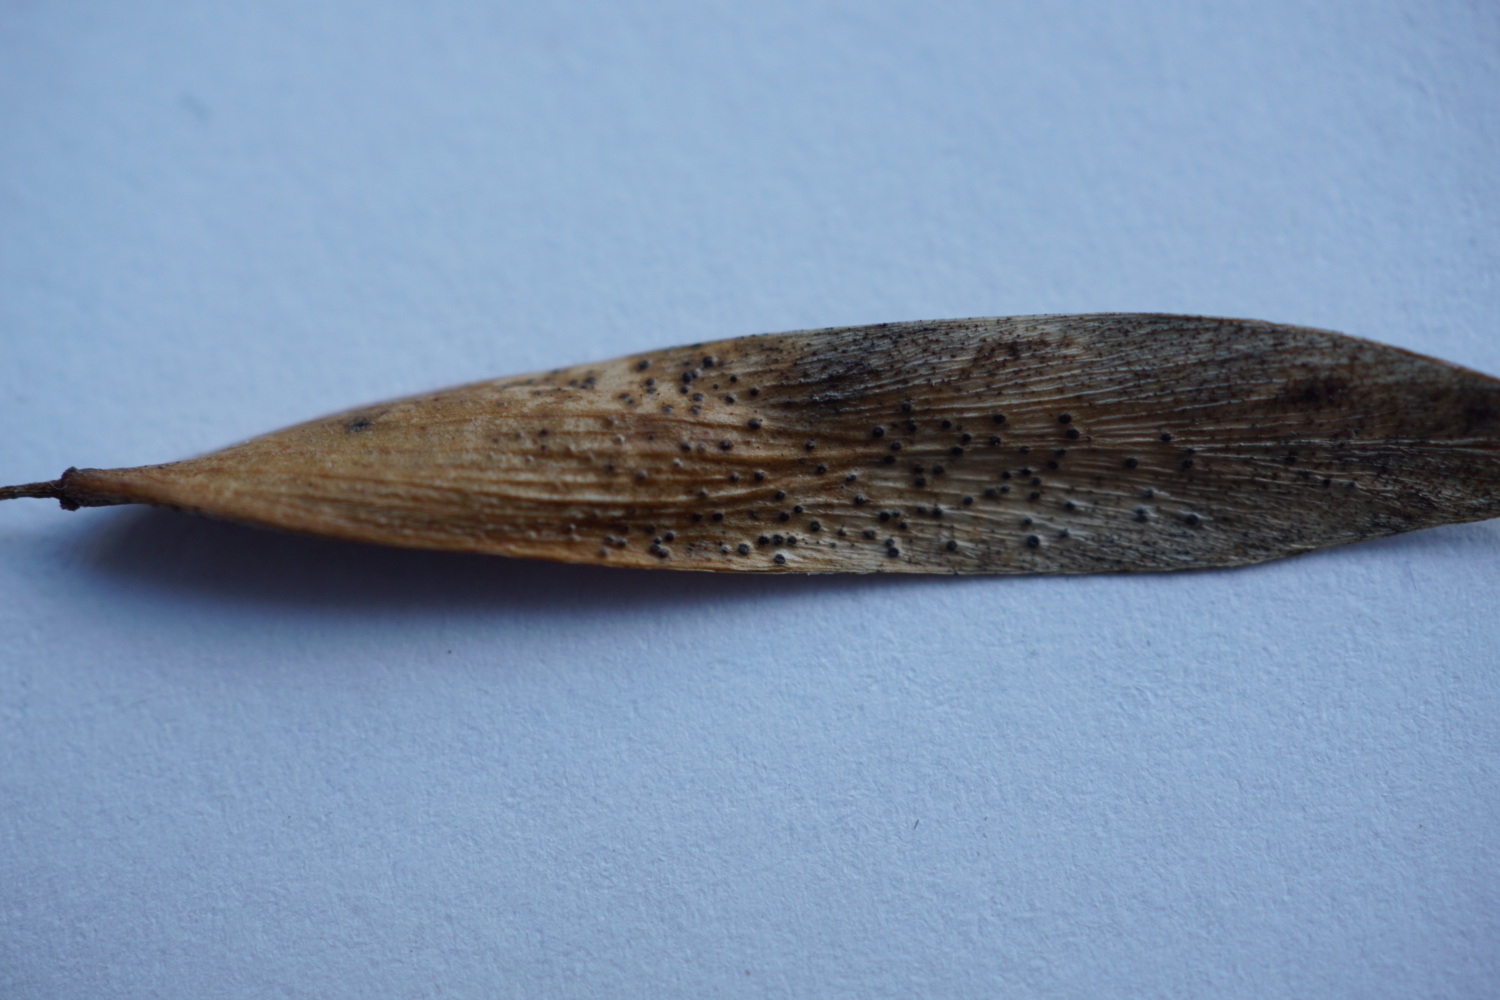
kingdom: Fungi
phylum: Ascomycota
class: Sordariomycetes
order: Diaporthales
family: Diaporthaceae
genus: Diaporthe
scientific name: Diaporthe samaricola
